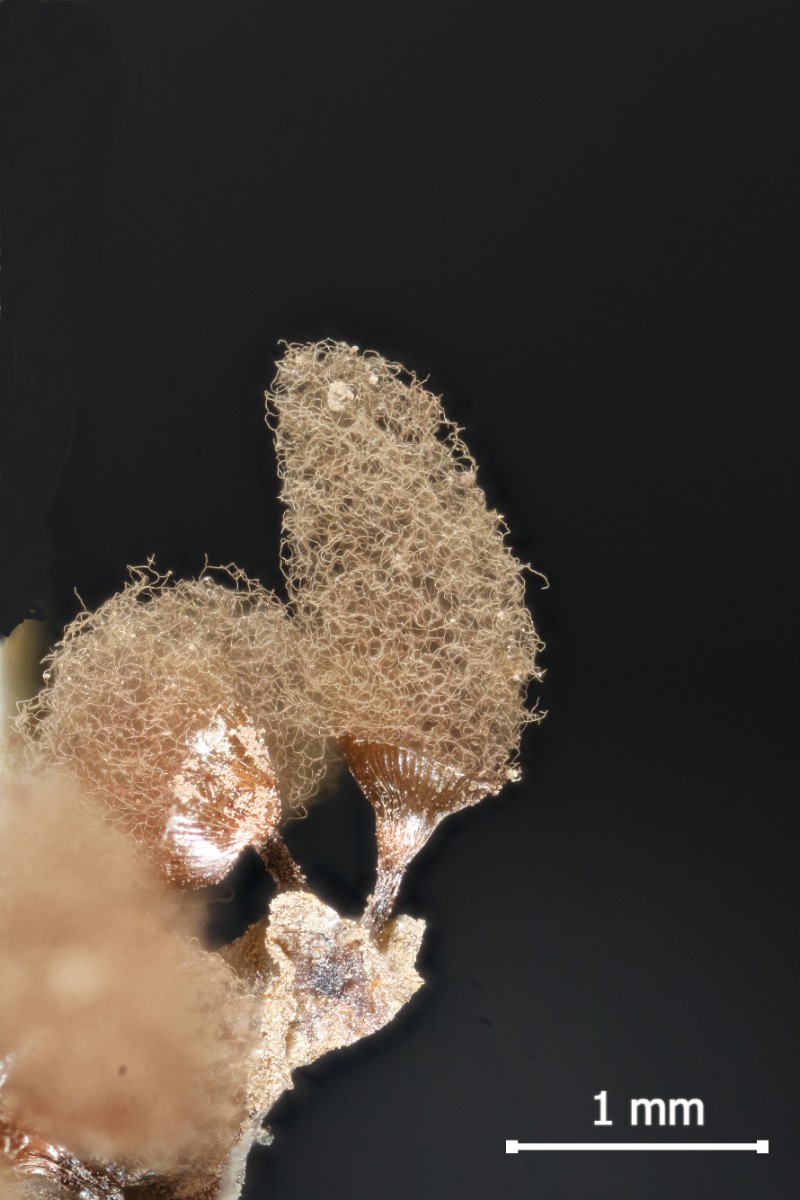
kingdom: Protozoa
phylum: Mycetozoa
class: Myxomycetes
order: Trichiales
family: Arcyriaceae
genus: Arcyria
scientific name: Arcyria denudata
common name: karminrød skålsvøb
